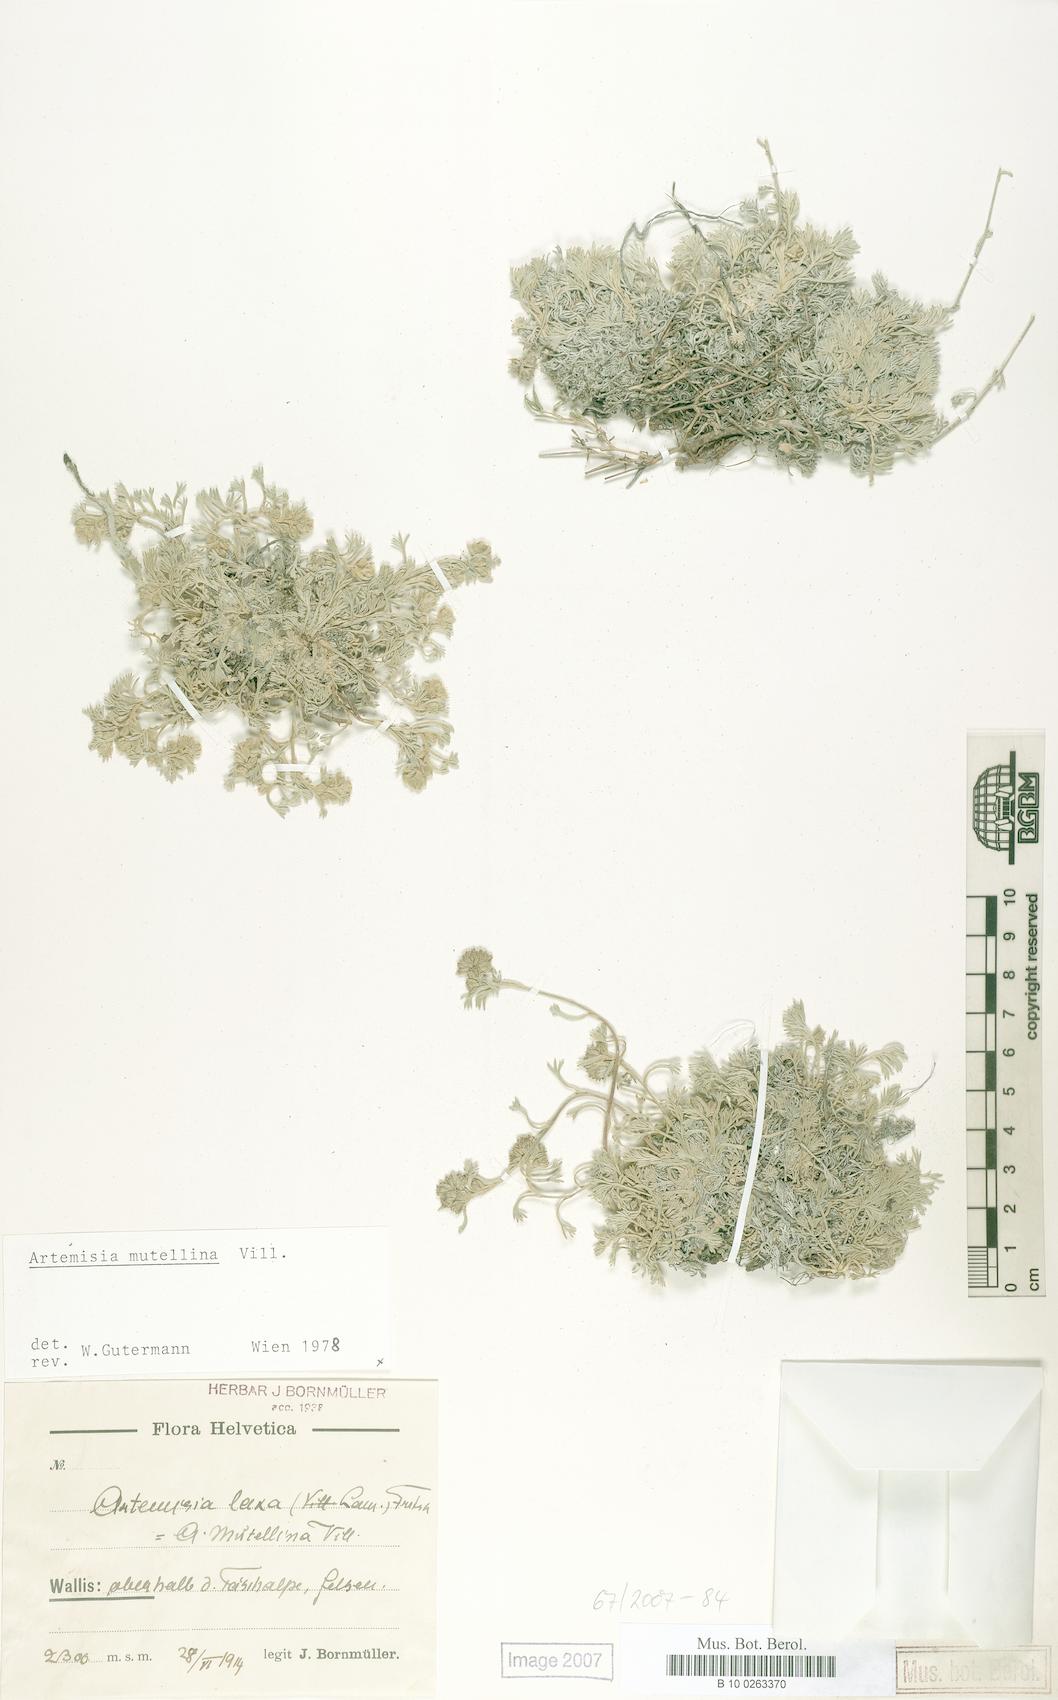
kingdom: Plantae
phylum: Tracheophyta
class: Magnoliopsida
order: Asterales
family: Asteraceae
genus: Artemisia
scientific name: Artemisia mutellina
